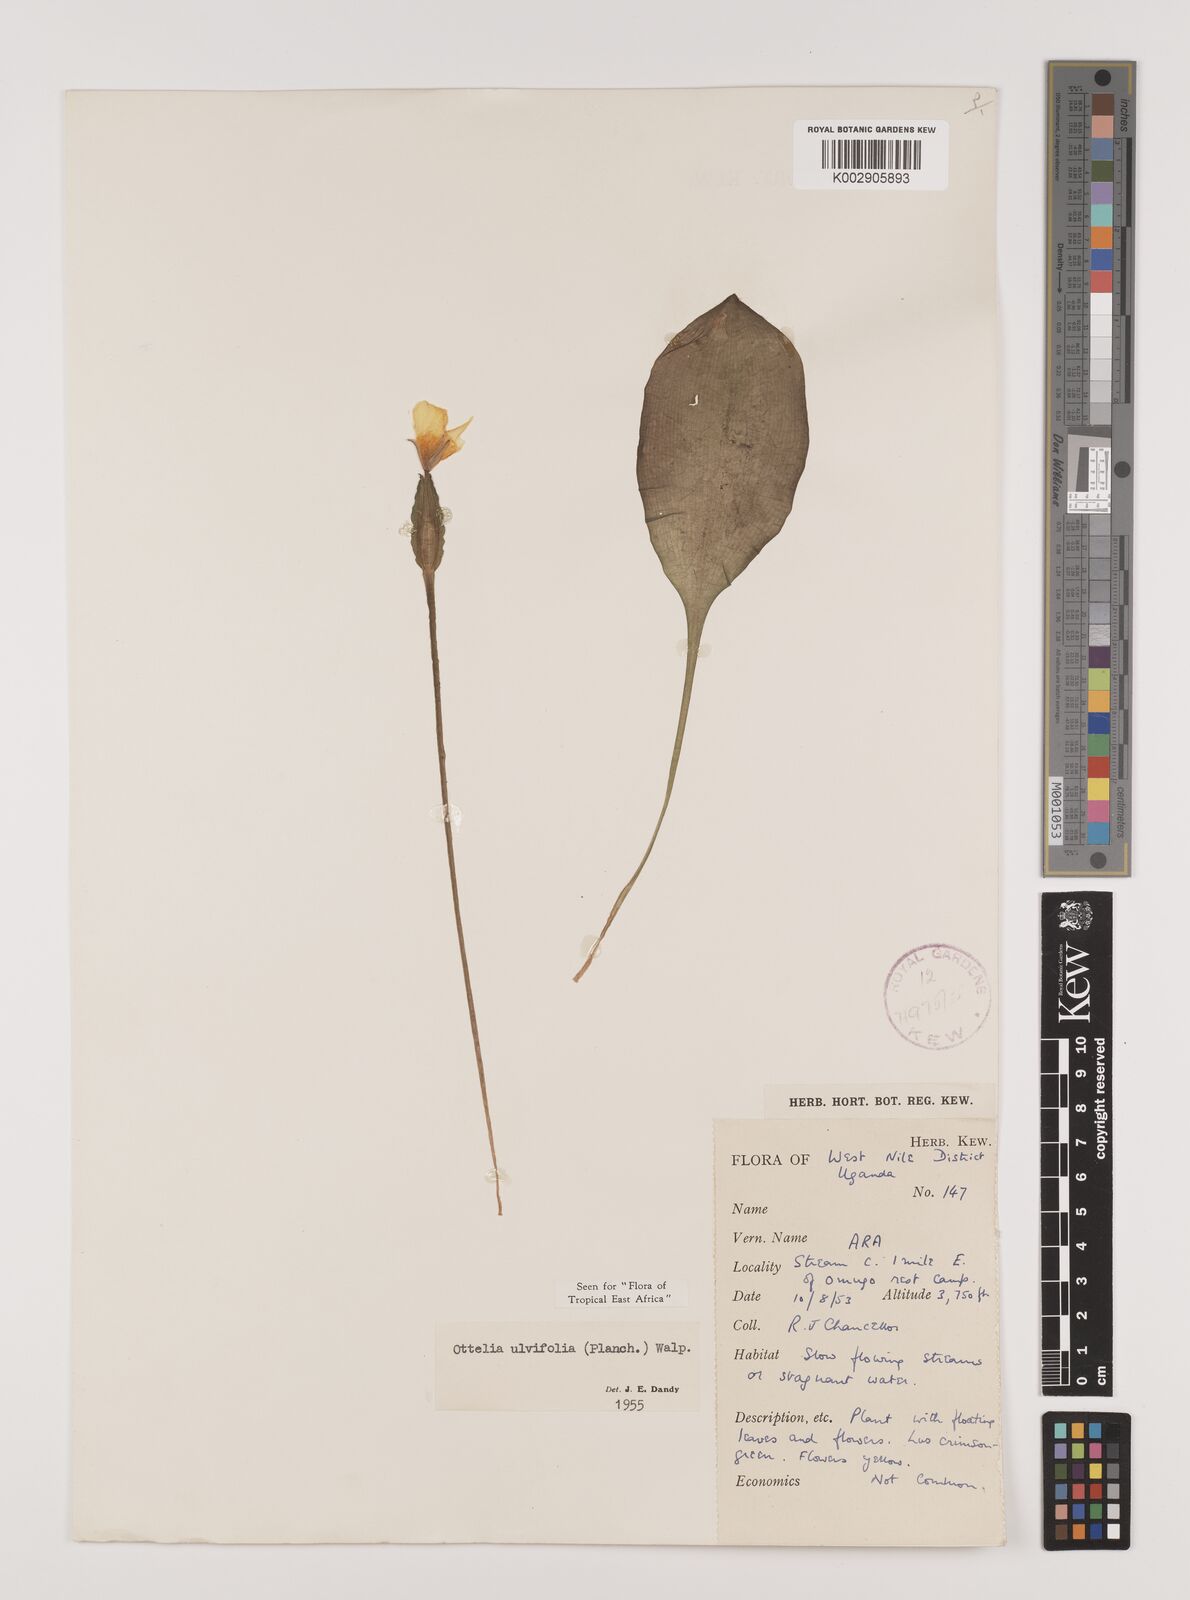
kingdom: Plantae
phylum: Tracheophyta
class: Liliopsida
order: Alismatales
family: Hydrocharitaceae
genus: Ottelia
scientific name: Ottelia ulvifolia
